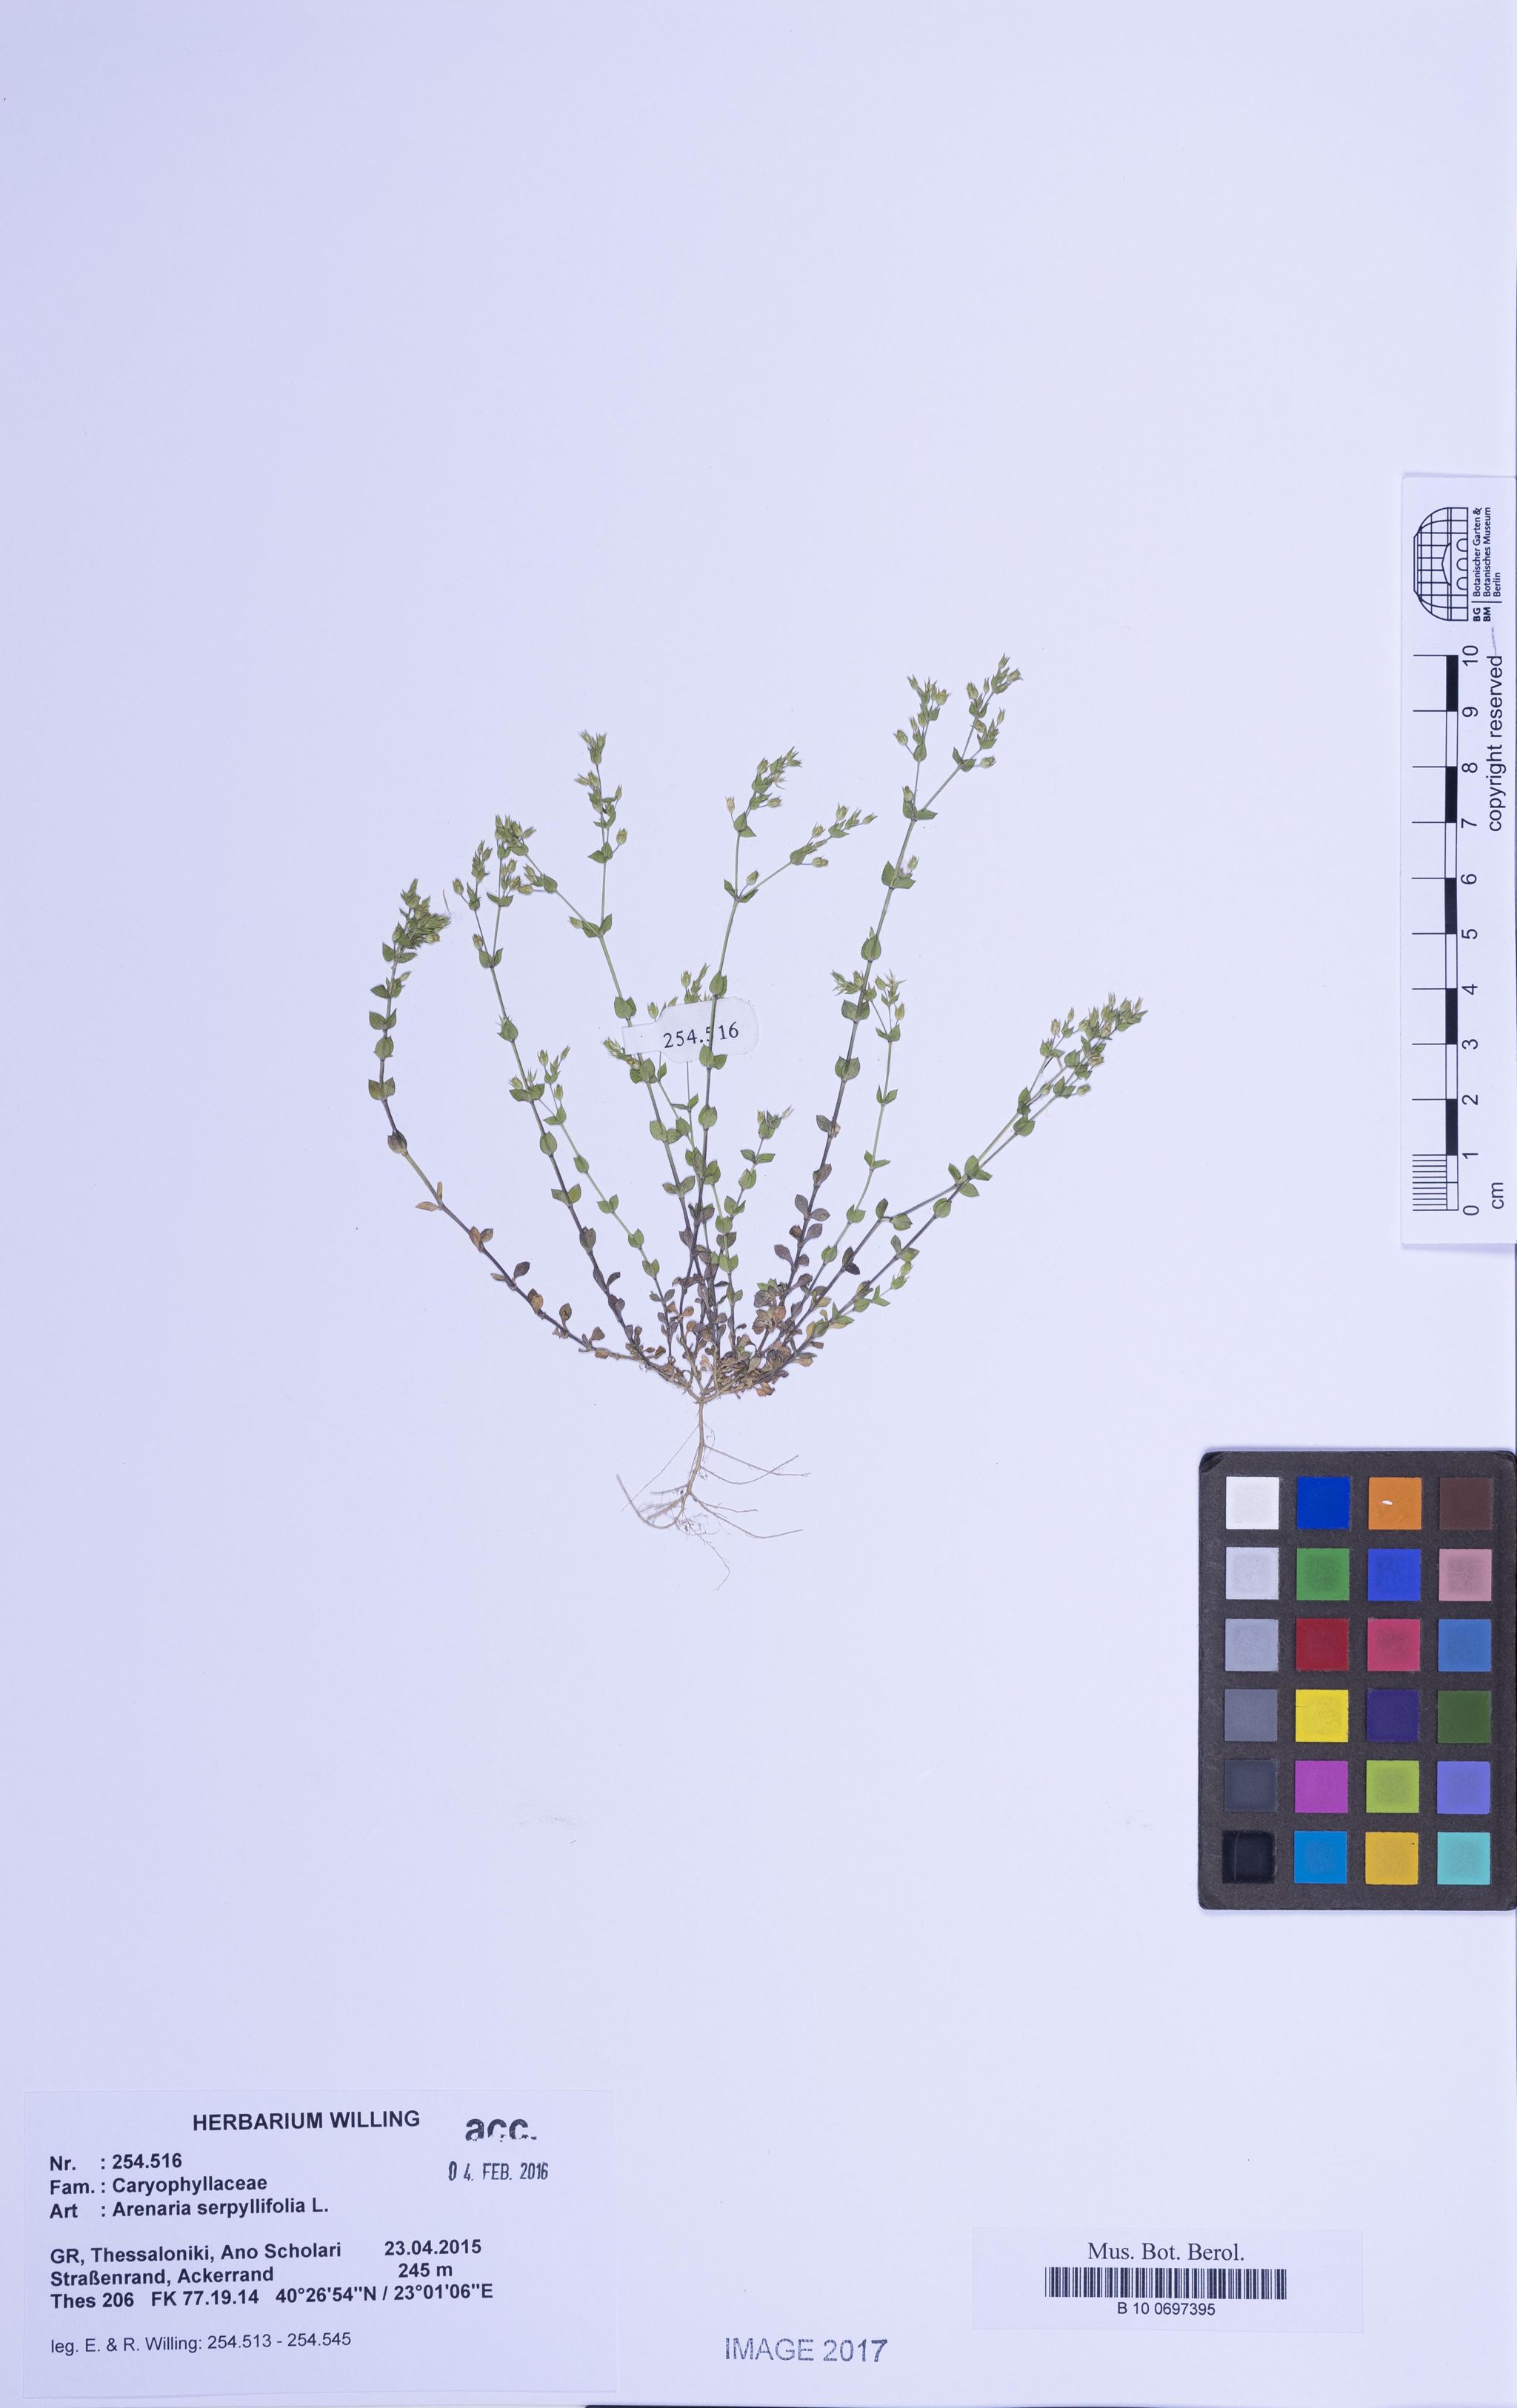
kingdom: Plantae
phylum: Tracheophyta
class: Magnoliopsida
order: Caryophyllales
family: Caryophyllaceae
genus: Arenaria
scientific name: Arenaria serpyllifolia
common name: Thyme-leaved sandwort
